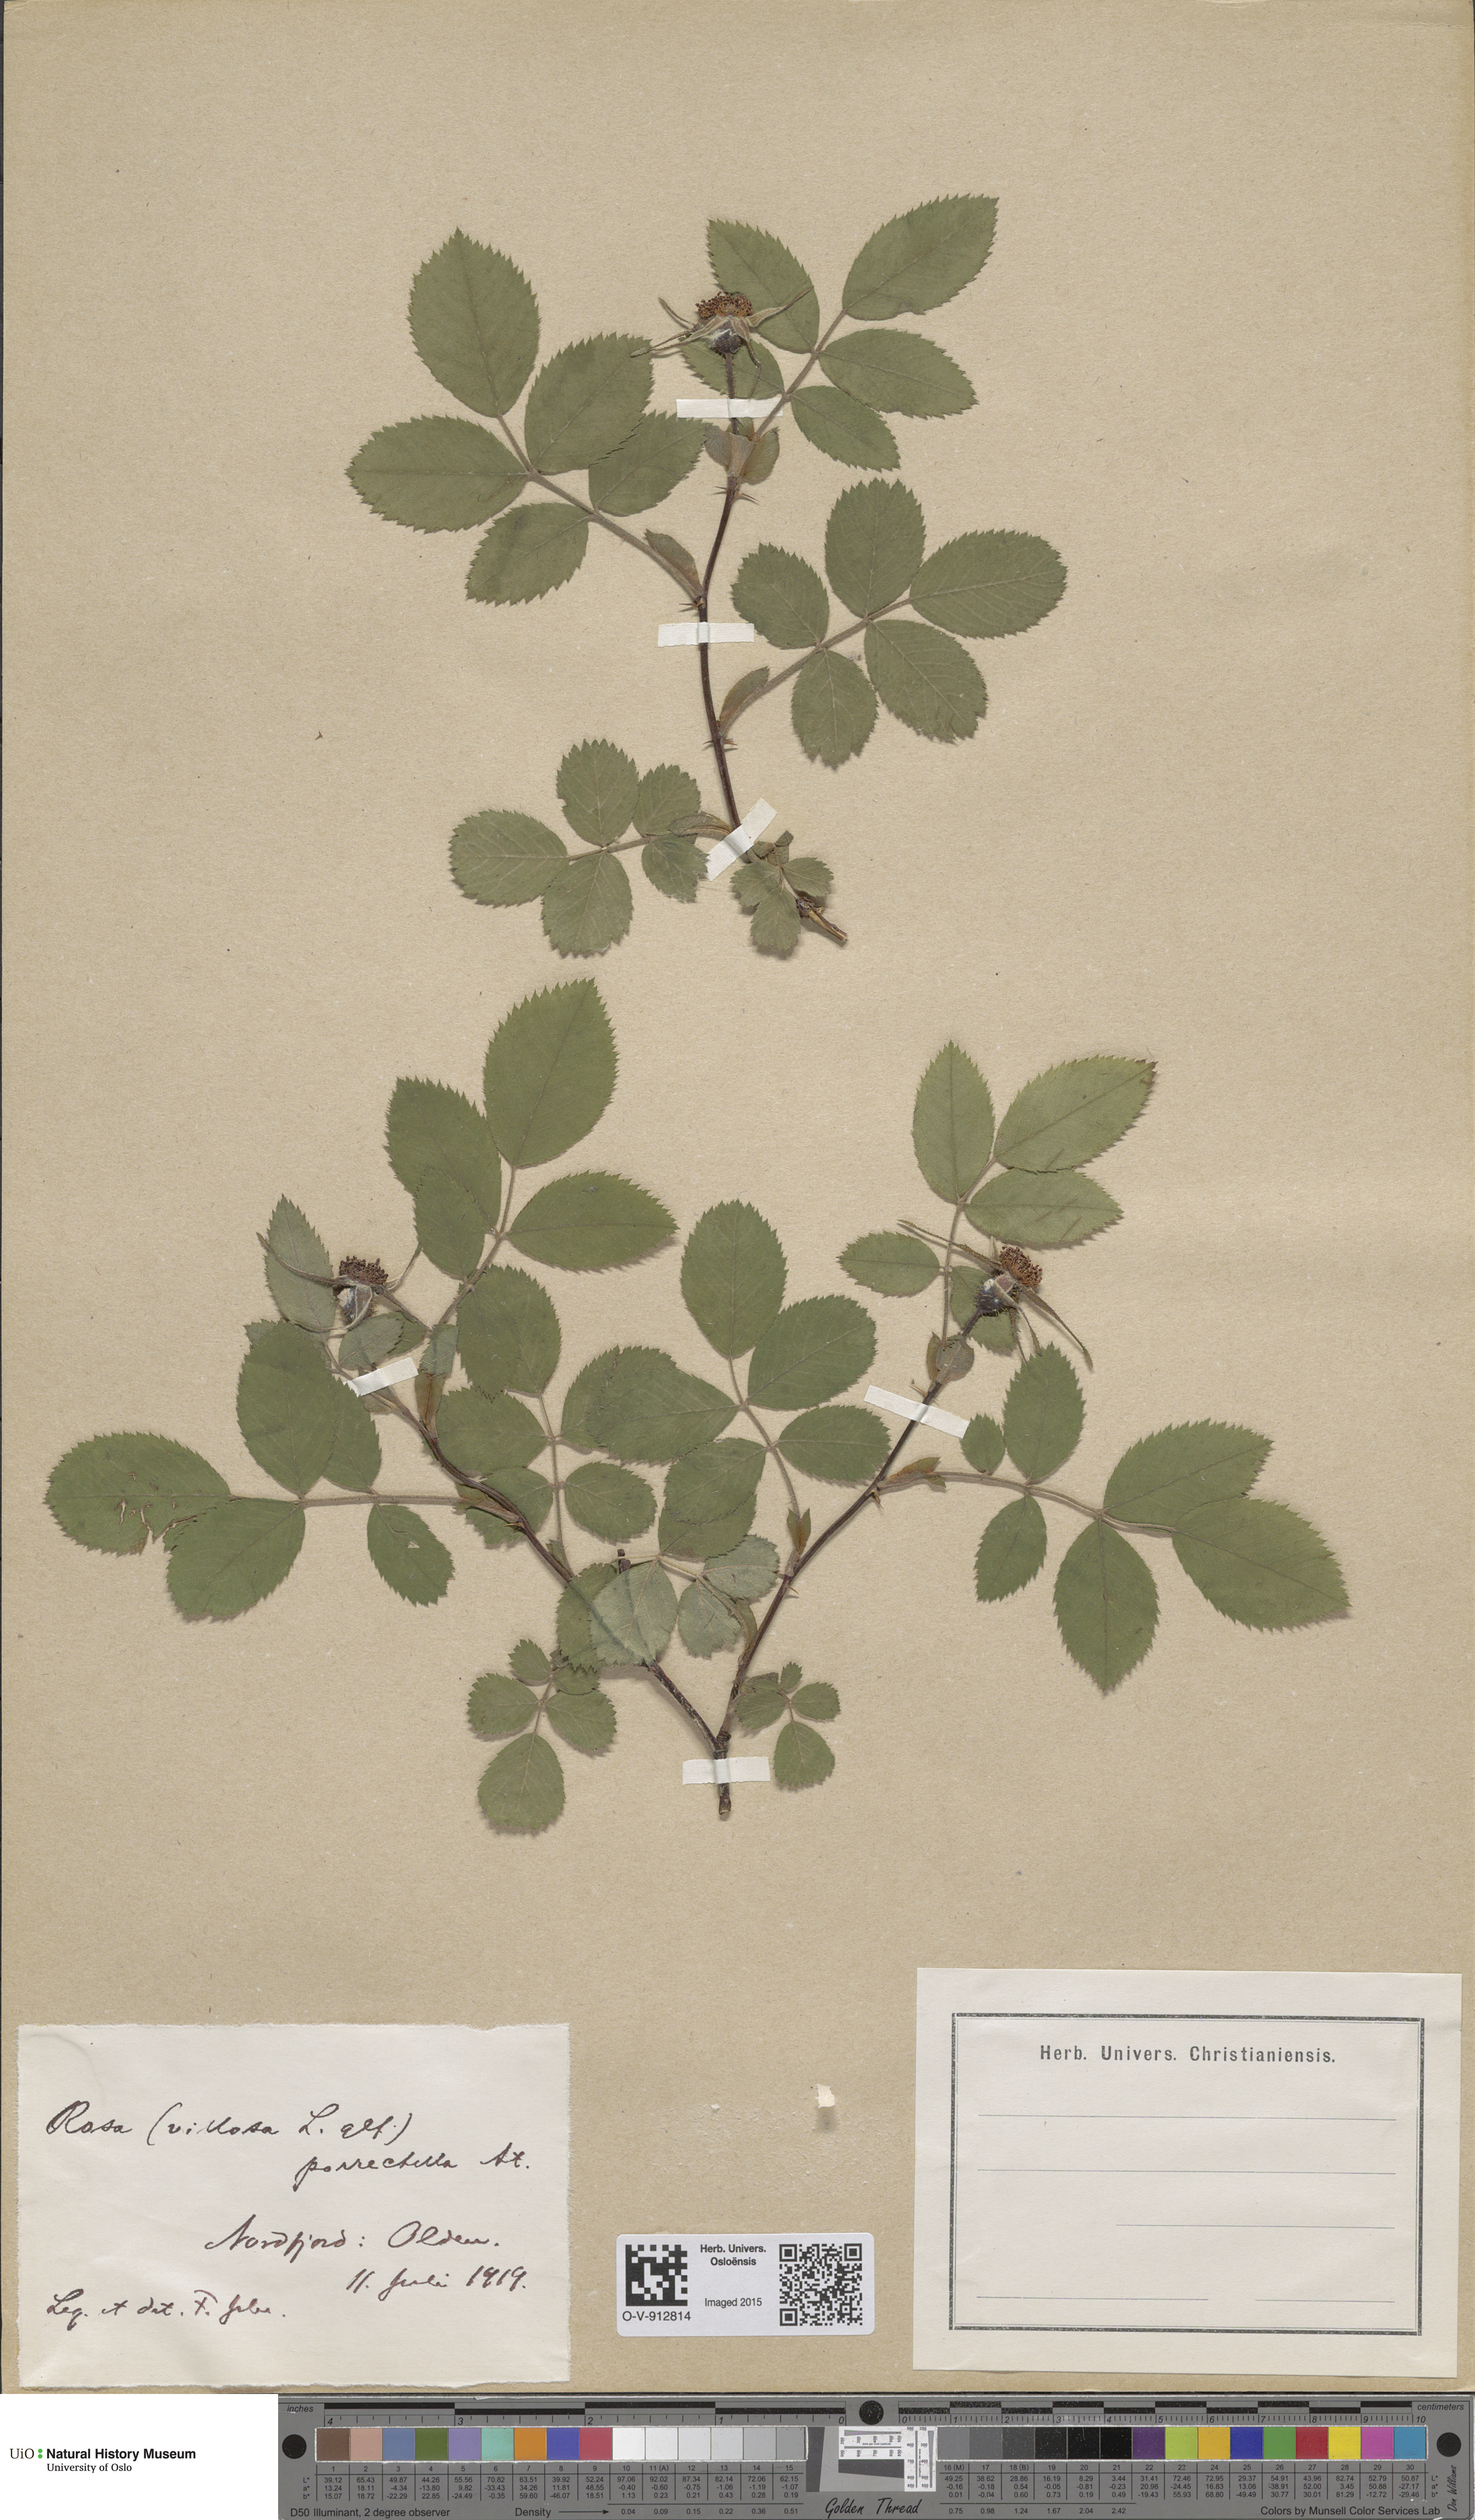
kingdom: Plantae
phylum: Tracheophyta
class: Magnoliopsida
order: Rosales
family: Rosaceae
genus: Rosa
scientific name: Rosa mollis
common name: Rose
